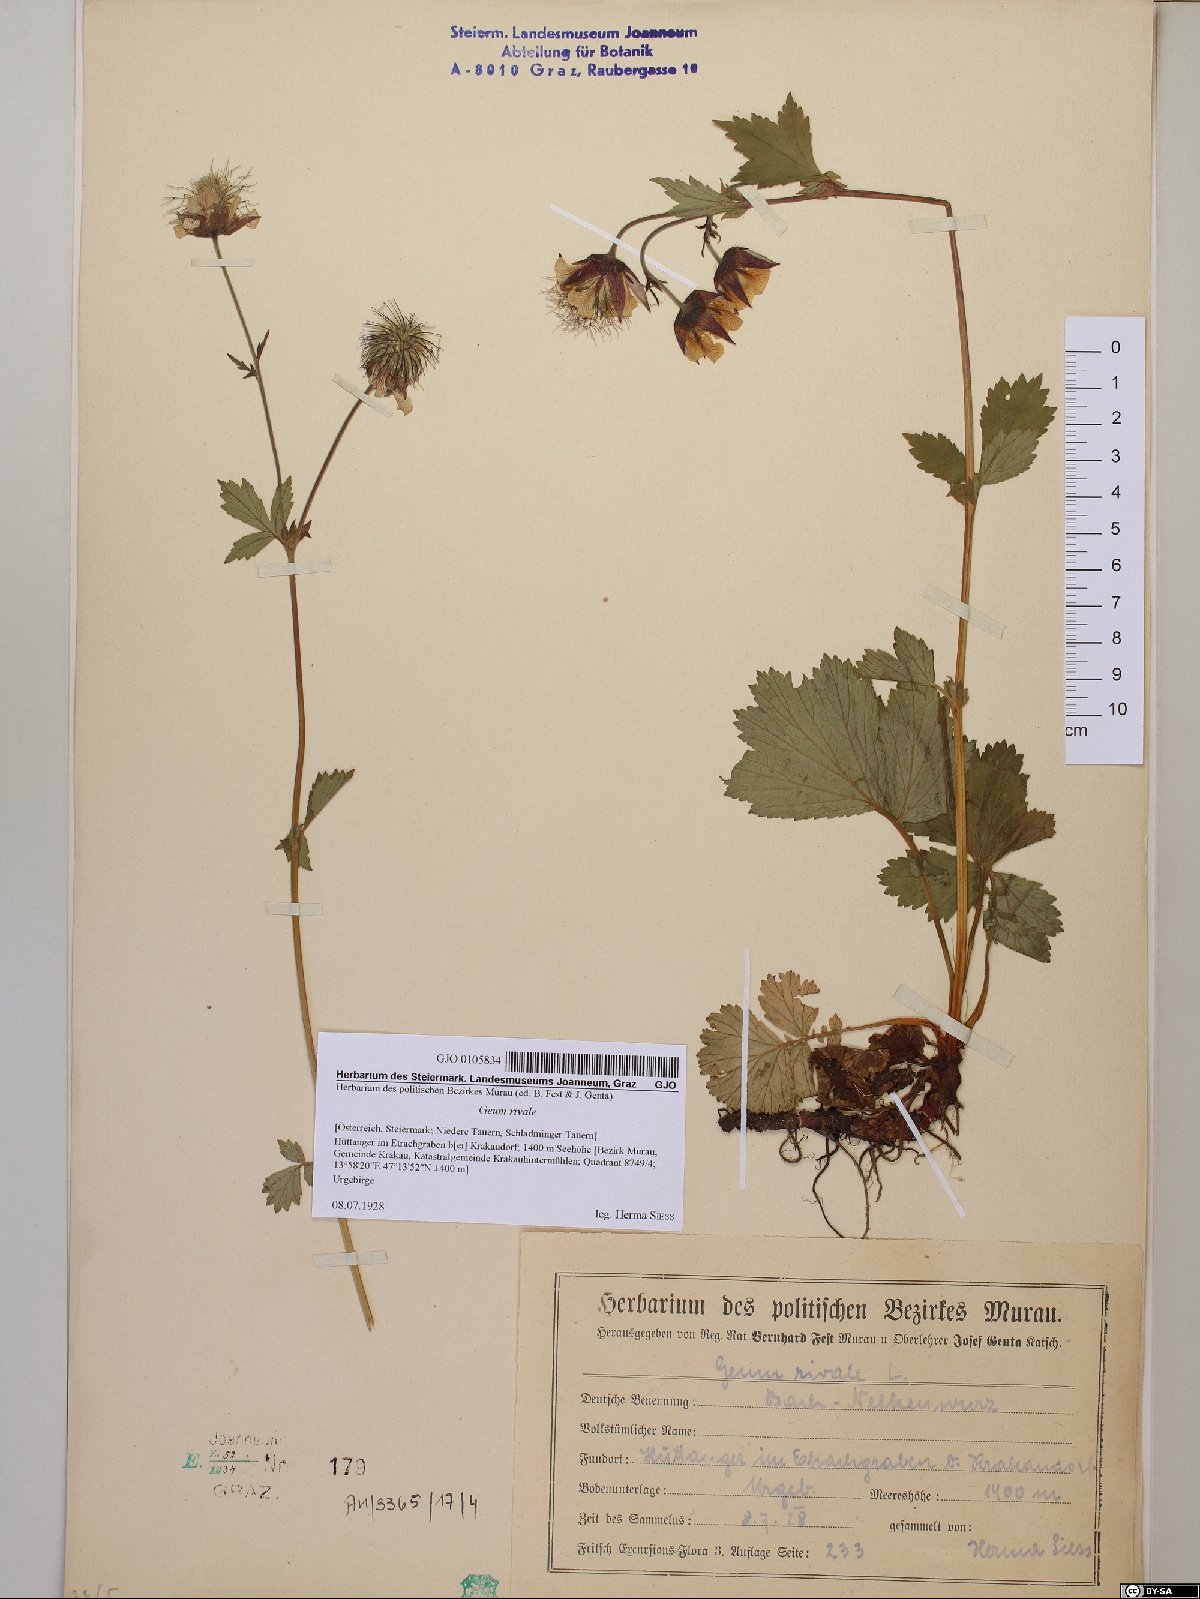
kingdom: Plantae
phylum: Tracheophyta
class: Magnoliopsida
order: Rosales
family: Rosaceae
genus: Geum
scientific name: Geum rivale
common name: Water avens
